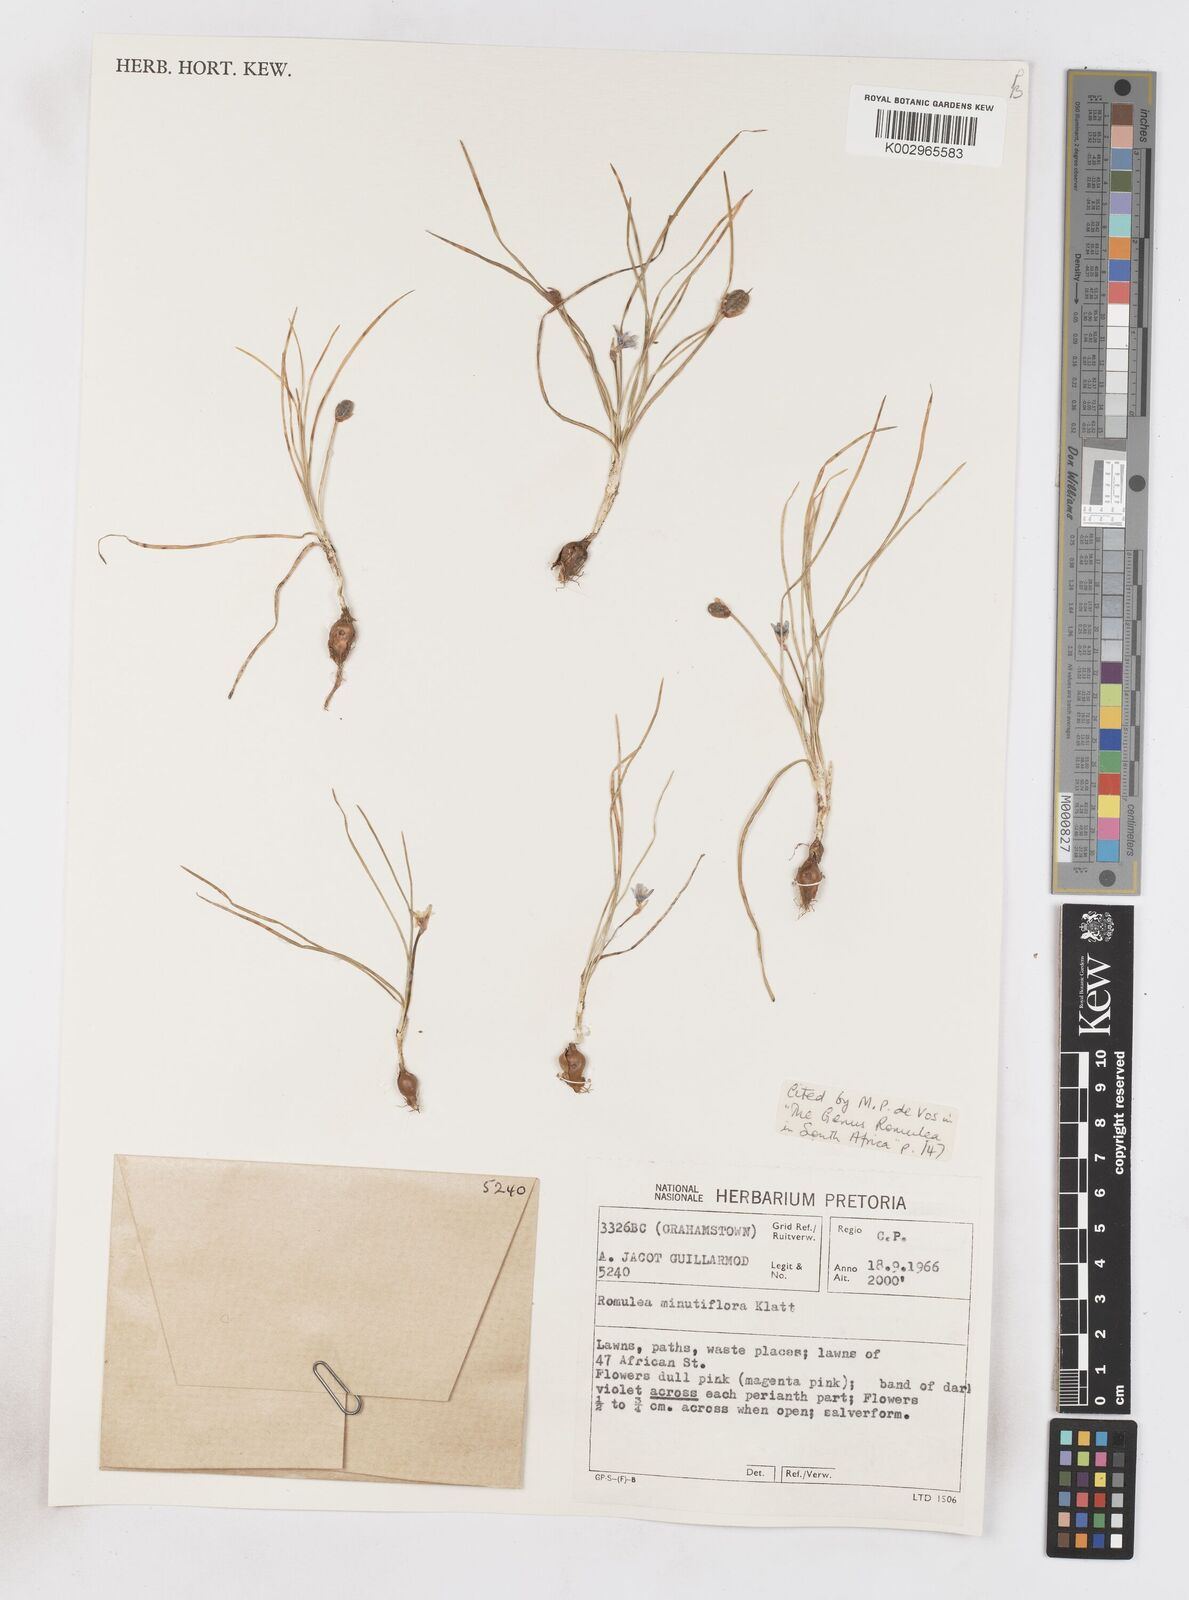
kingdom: Plantae
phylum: Tracheophyta
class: Liliopsida
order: Asparagales
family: Iridaceae
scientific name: Iridaceae
